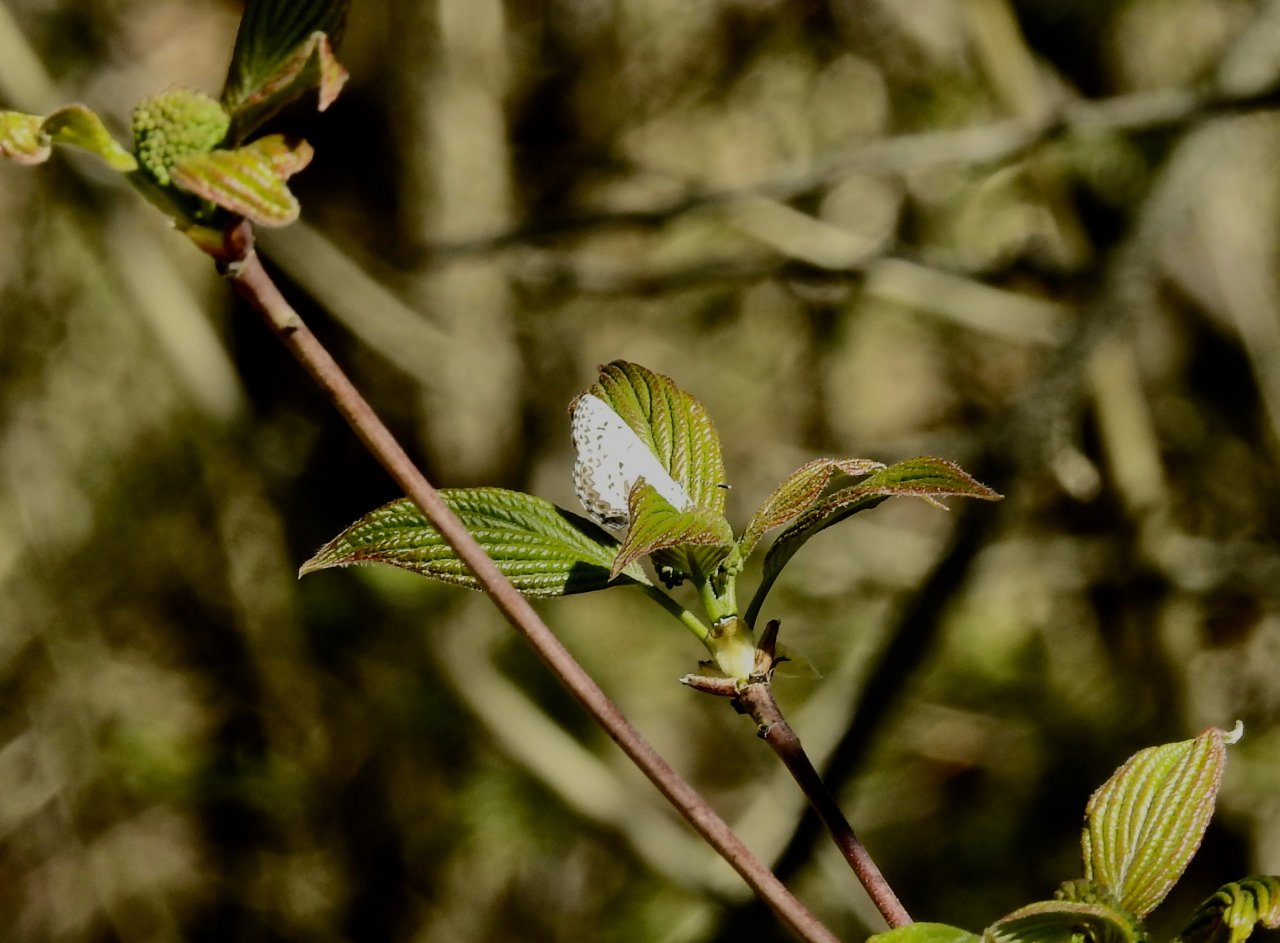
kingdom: Animalia
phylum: Arthropoda
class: Insecta
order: Lepidoptera
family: Lycaenidae
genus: Celastrina
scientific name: Celastrina lucia
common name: Northern Spring Azure
